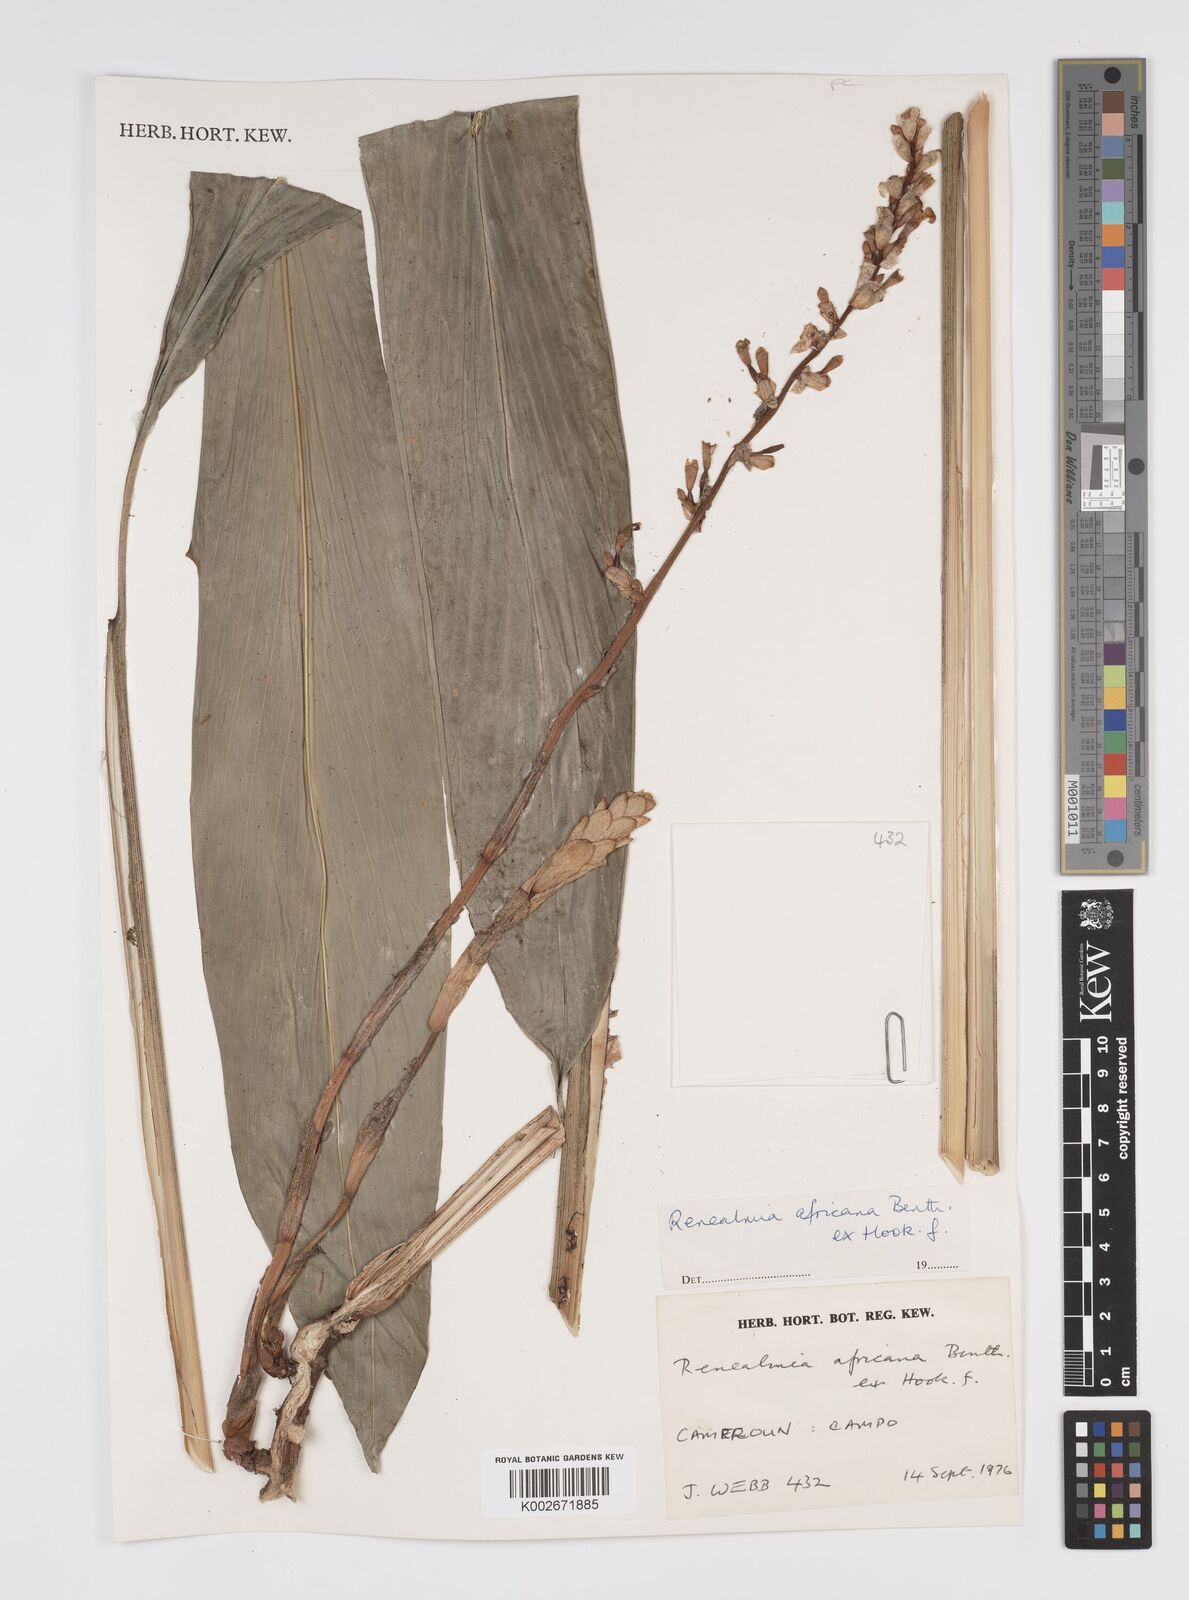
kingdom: Plantae
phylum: Tracheophyta
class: Liliopsida
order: Zingiberales
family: Zingiberaceae
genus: Renealmia
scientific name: Renealmia africana
